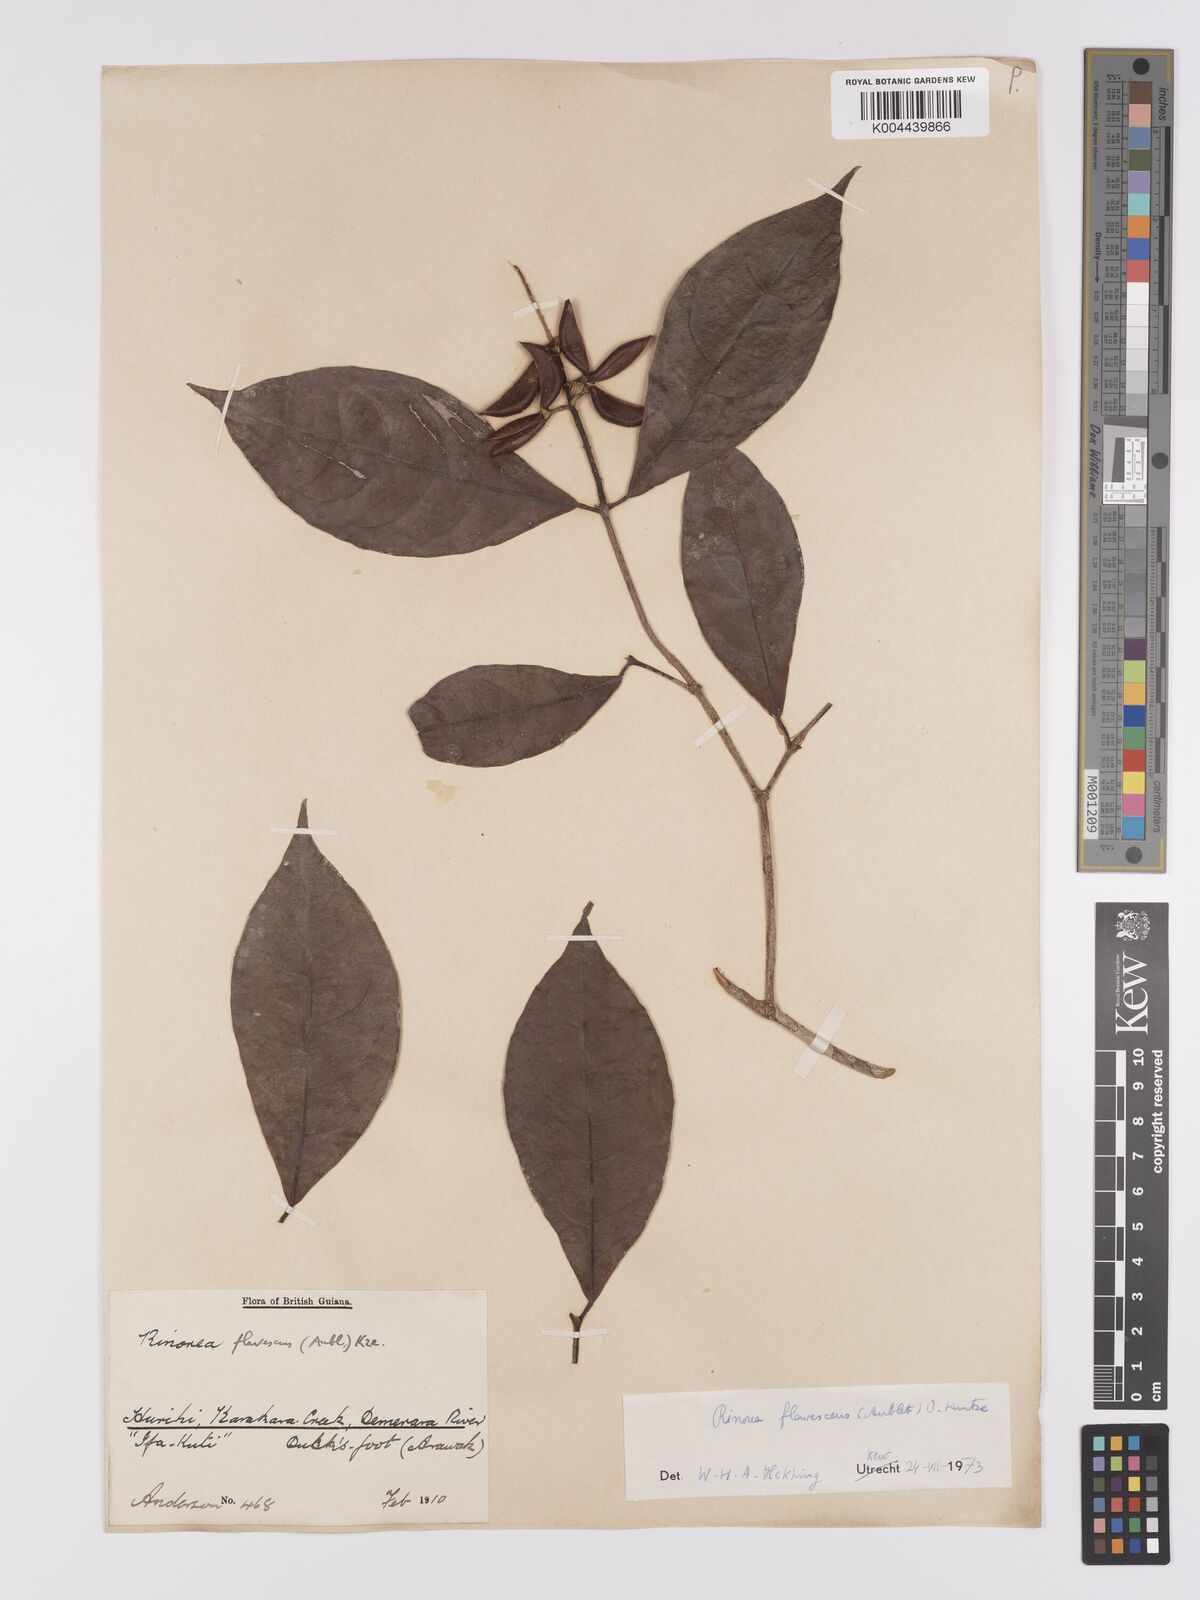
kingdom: Plantae
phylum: Tracheophyta
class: Magnoliopsida
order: Malpighiales
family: Violaceae
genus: Rinorea
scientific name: Rinorea flavescens
